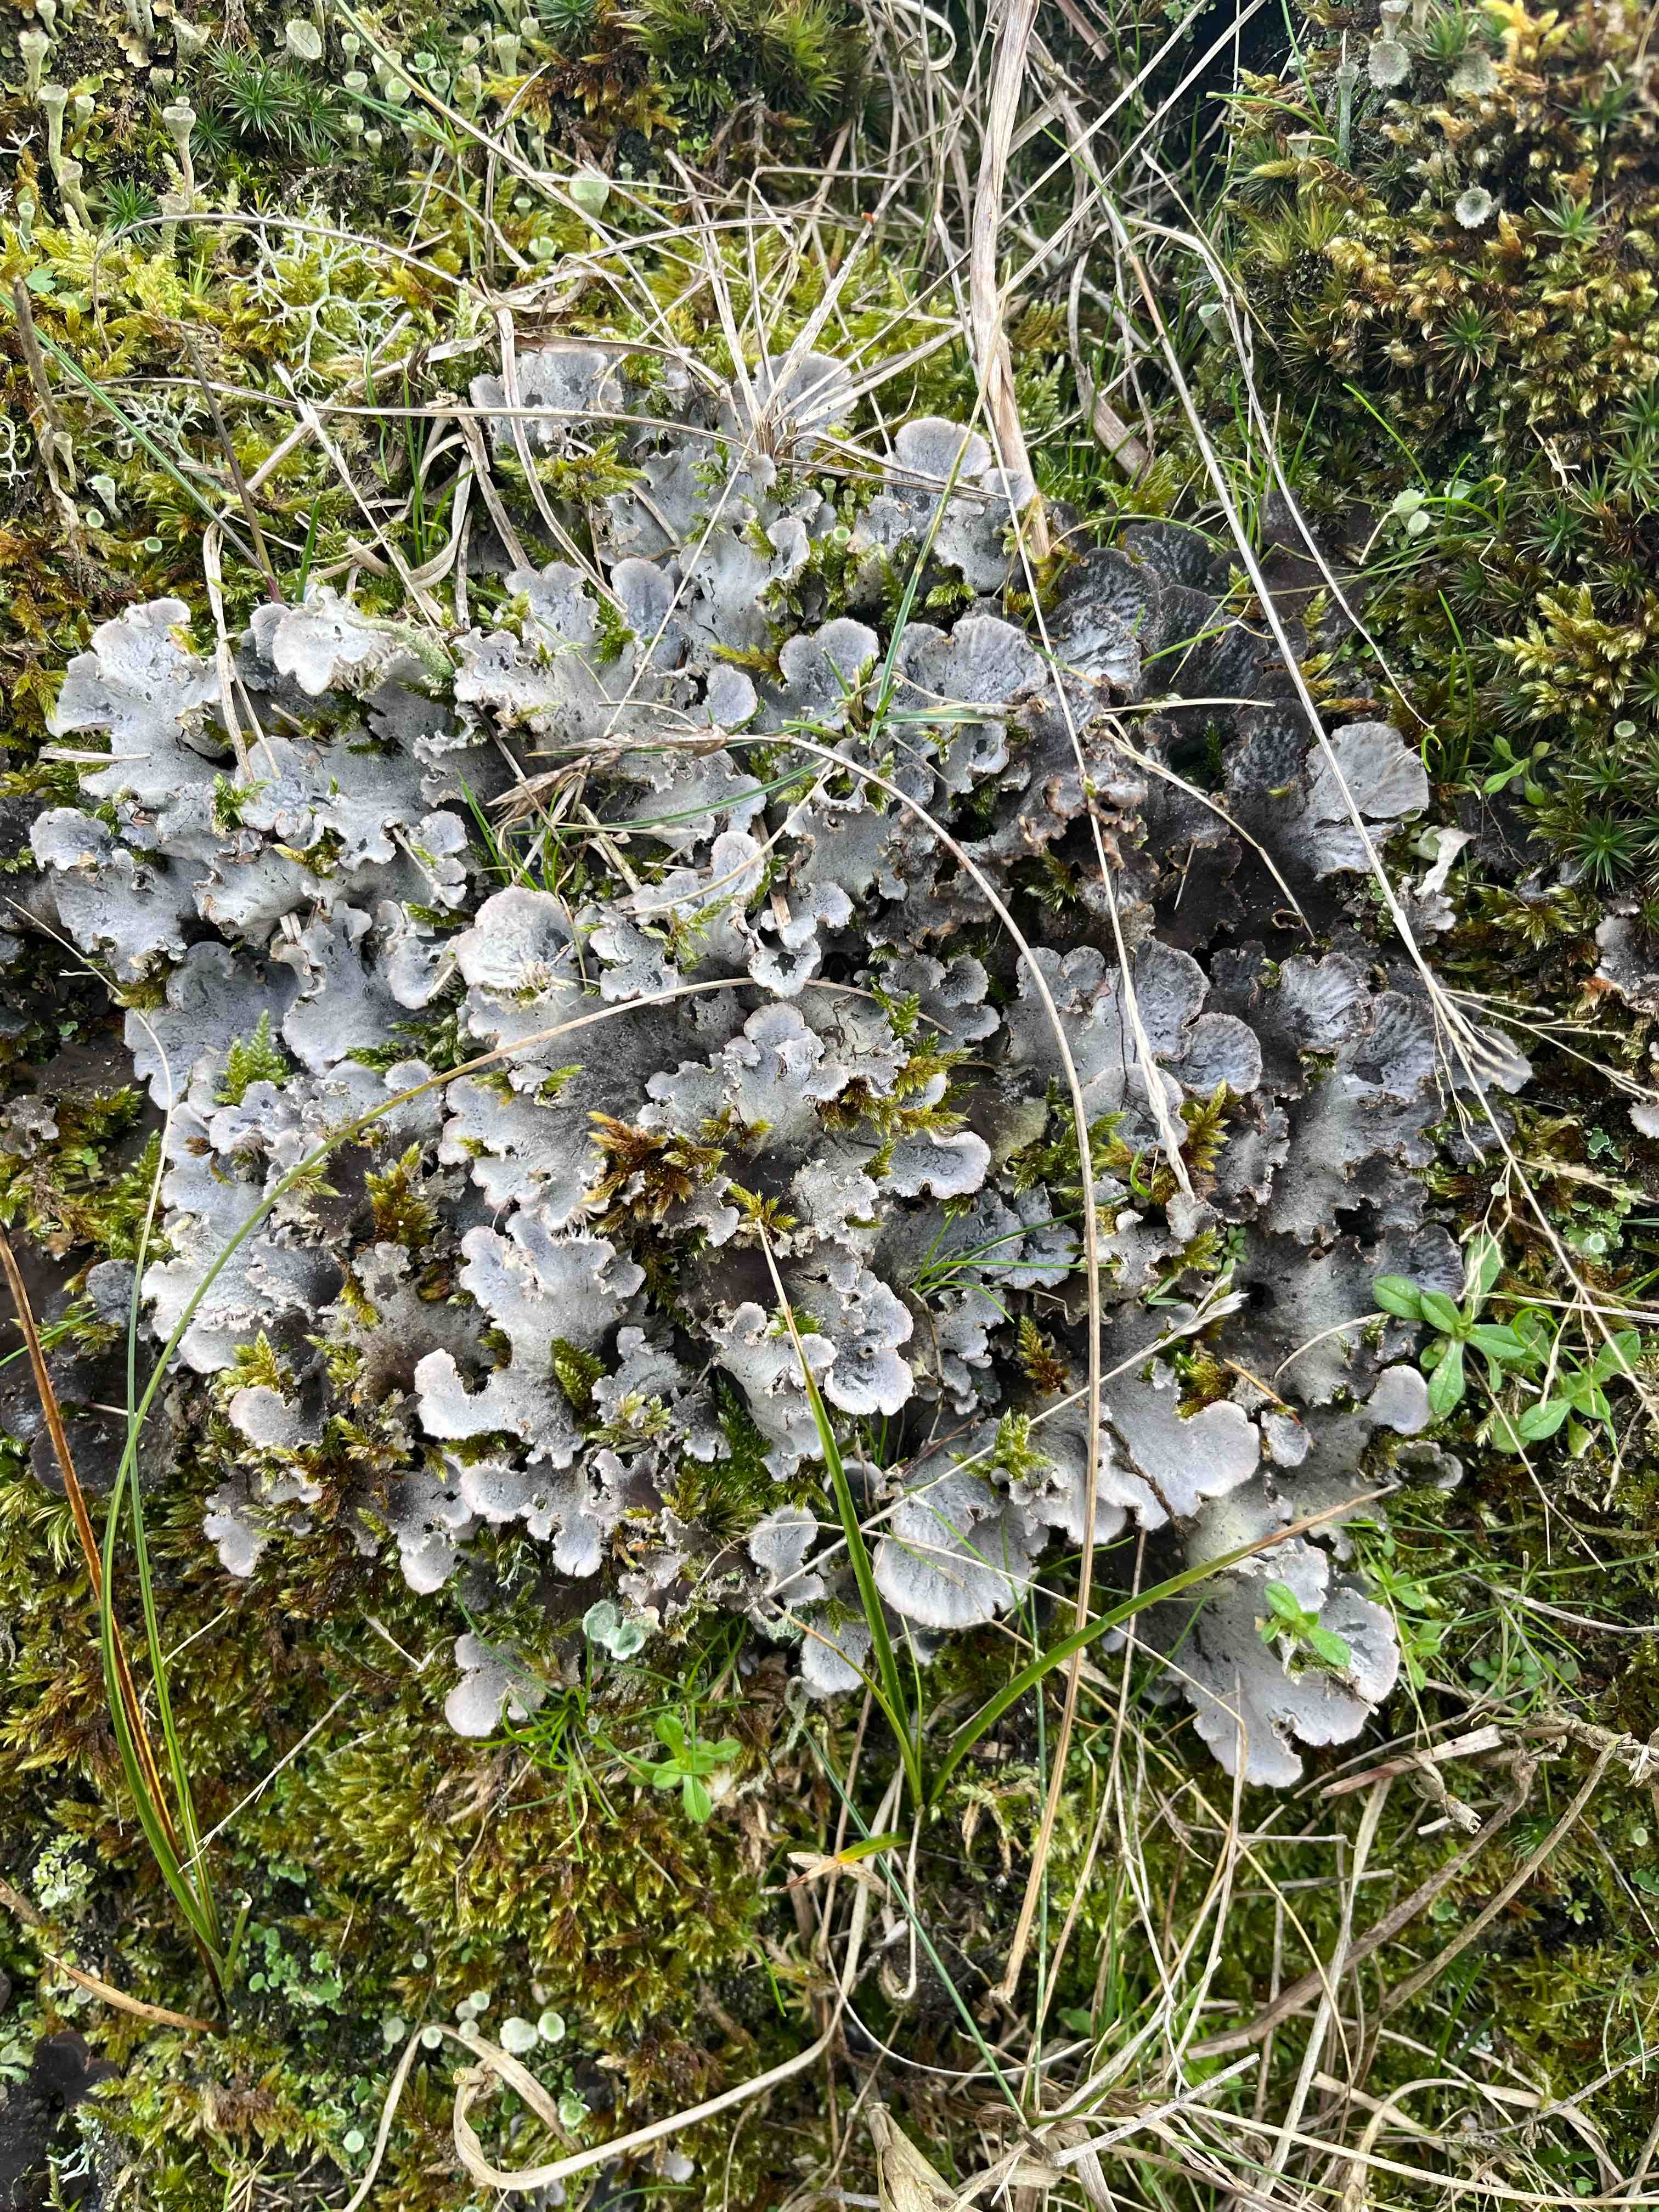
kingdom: Fungi
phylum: Ascomycota
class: Lecanoromycetes
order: Peltigerales
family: Peltigeraceae
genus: Peltigera
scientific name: Peltigera canina
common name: hunde-skjoldlav
